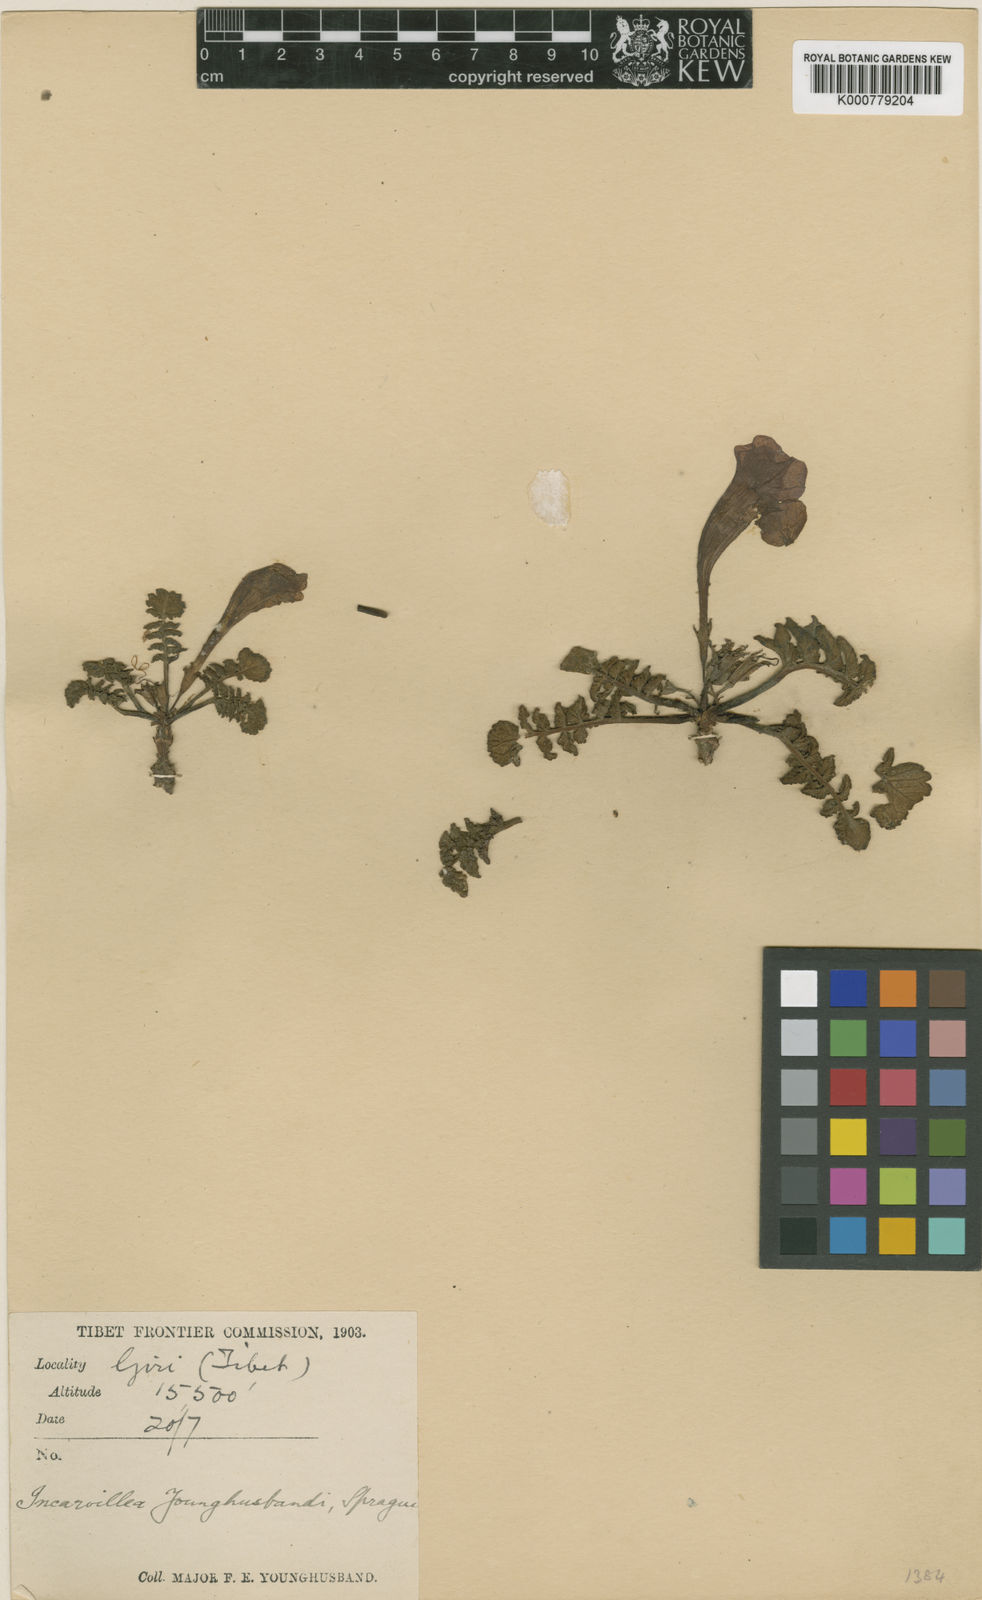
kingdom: Plantae
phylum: Tracheophyta
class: Magnoliopsida
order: Lamiales
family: Bignoniaceae
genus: Incarvillea
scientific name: Incarvillea younghusbandii
